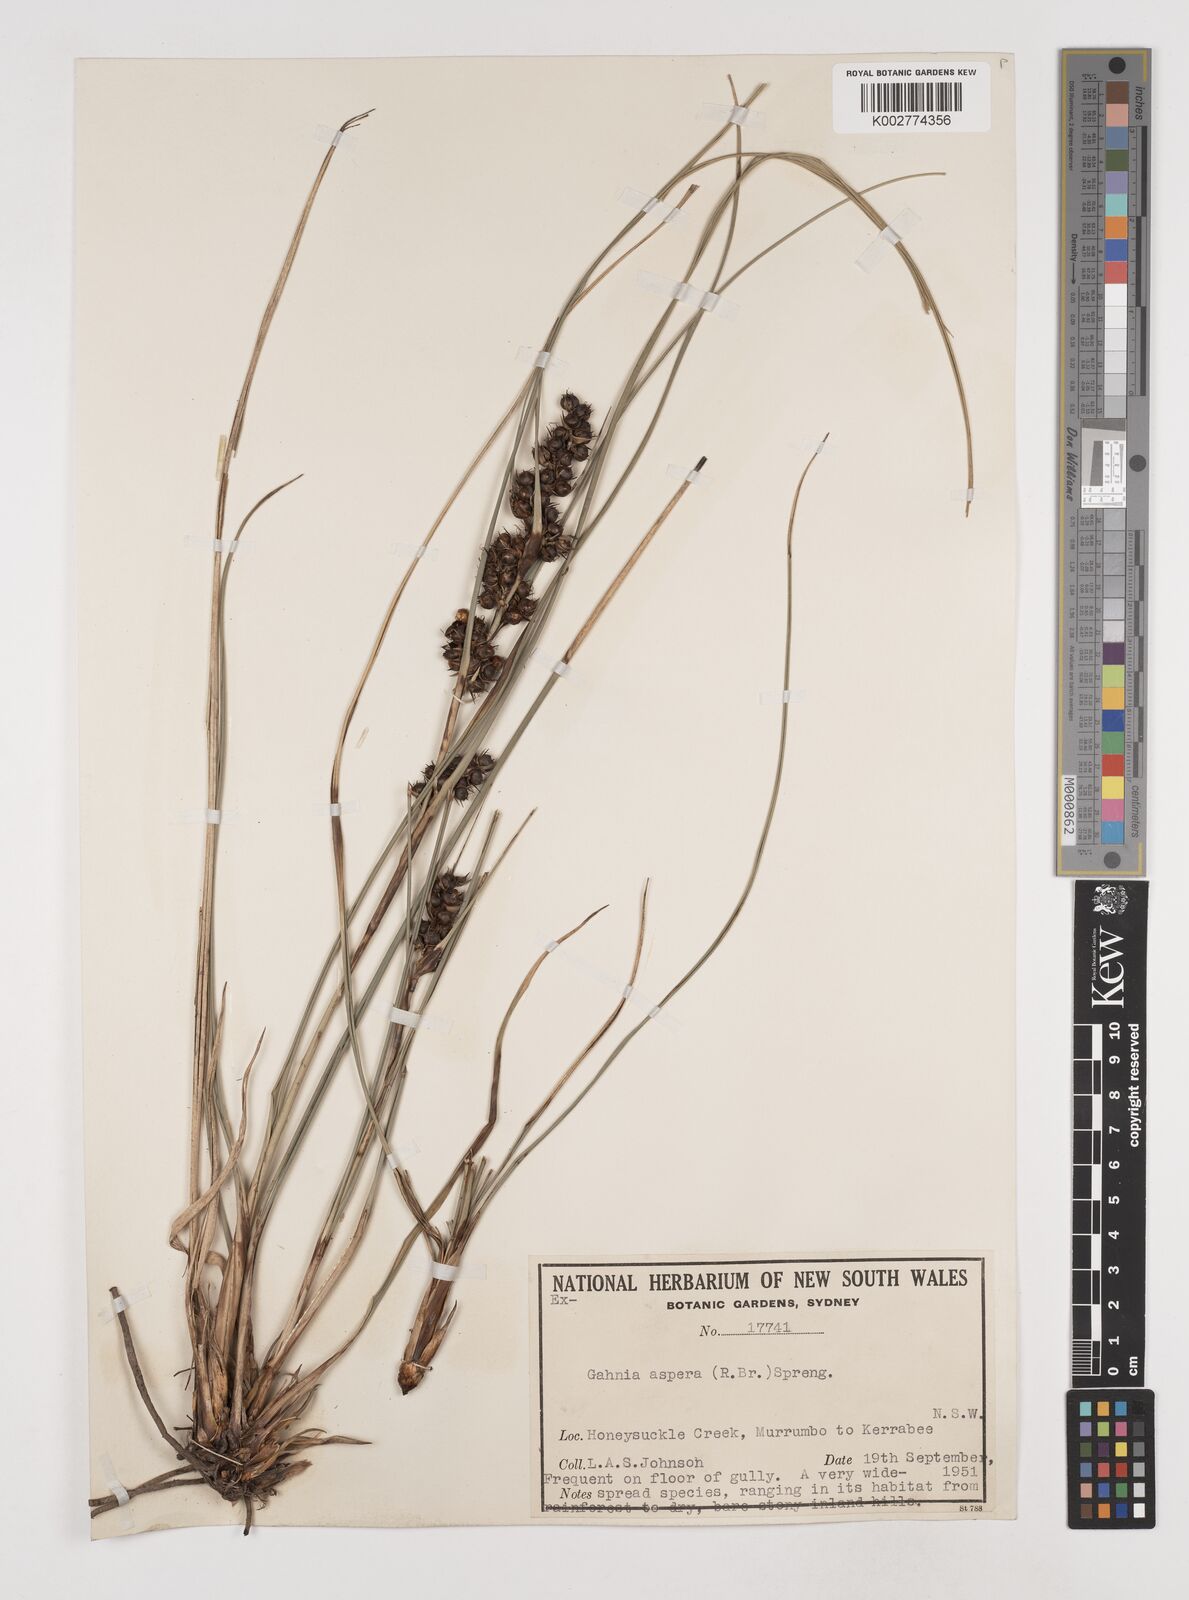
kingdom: Plantae
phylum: Tracheophyta
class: Liliopsida
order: Poales
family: Cyperaceae
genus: Gahnia
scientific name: Gahnia aspera
